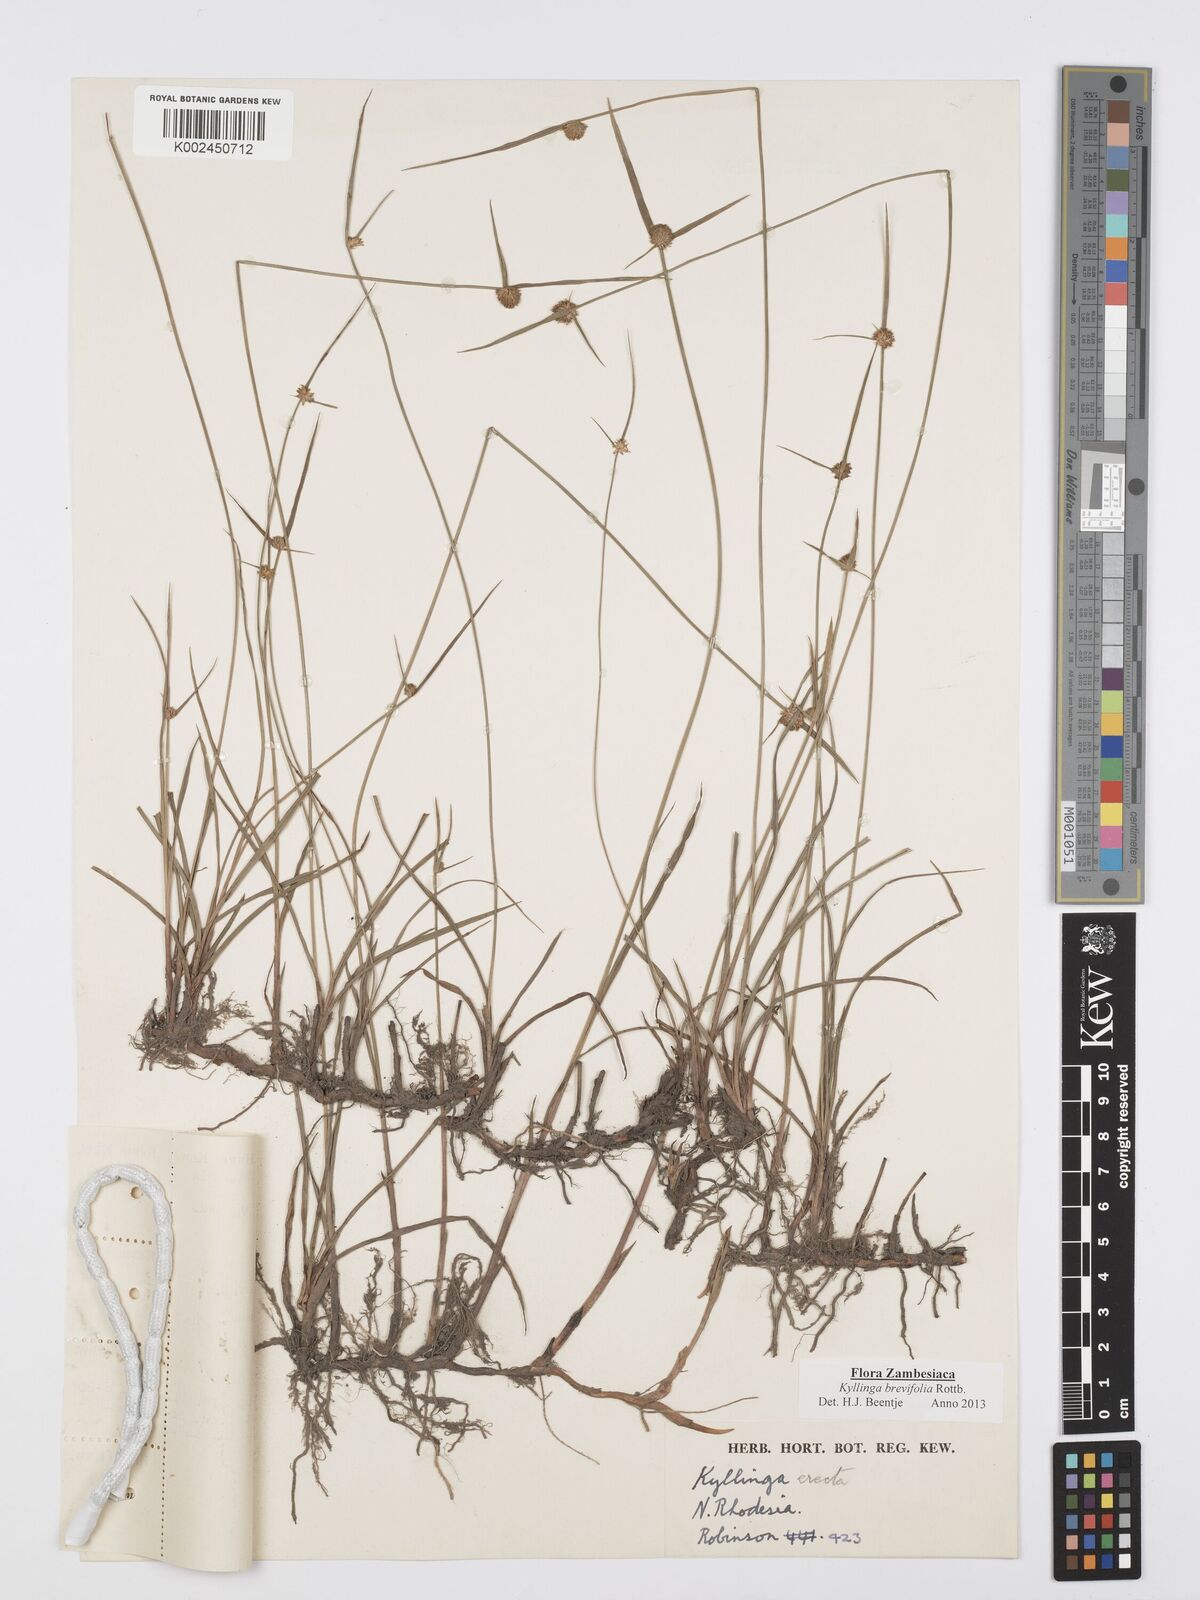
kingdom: Plantae
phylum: Tracheophyta
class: Liliopsida
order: Poales
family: Cyperaceae
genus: Cyperus
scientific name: Cyperus brevifolius
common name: Globe kyllinga
